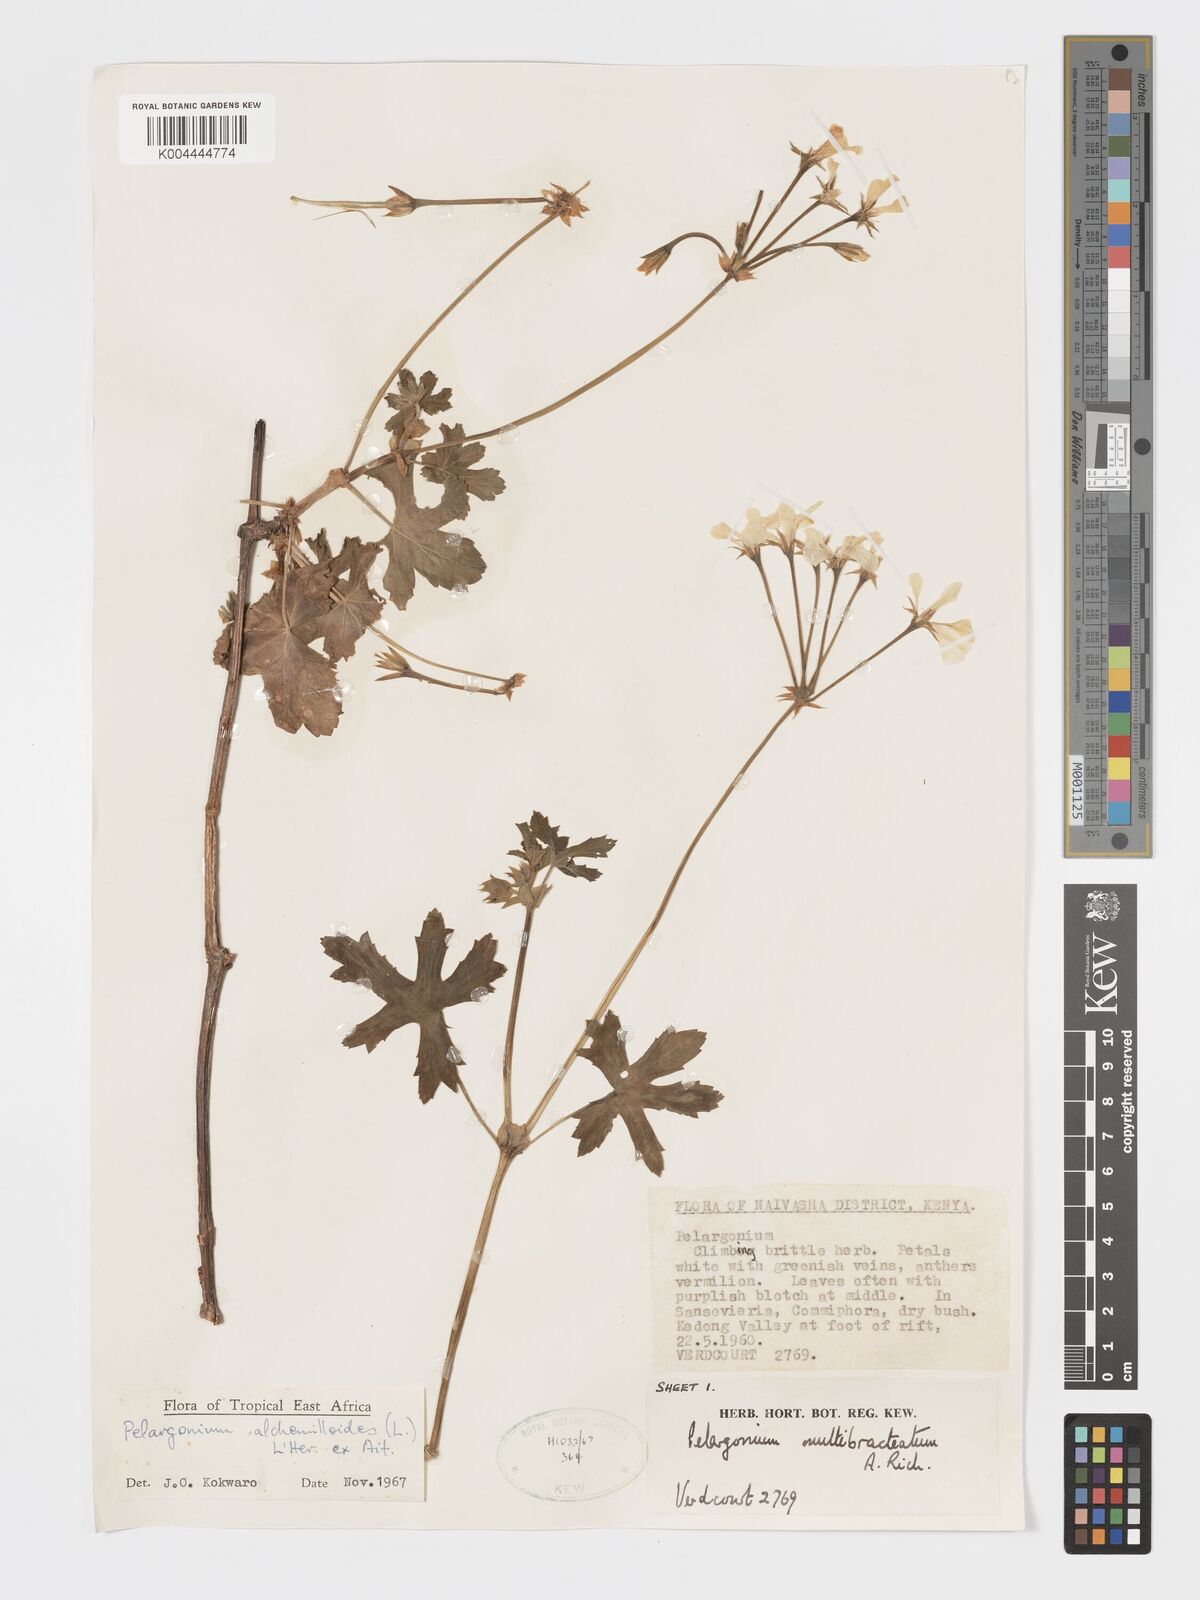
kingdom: Plantae
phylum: Tracheophyta
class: Magnoliopsida
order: Geraniales
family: Geraniaceae
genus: Pelargonium
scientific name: Pelargonium alchemilloides
